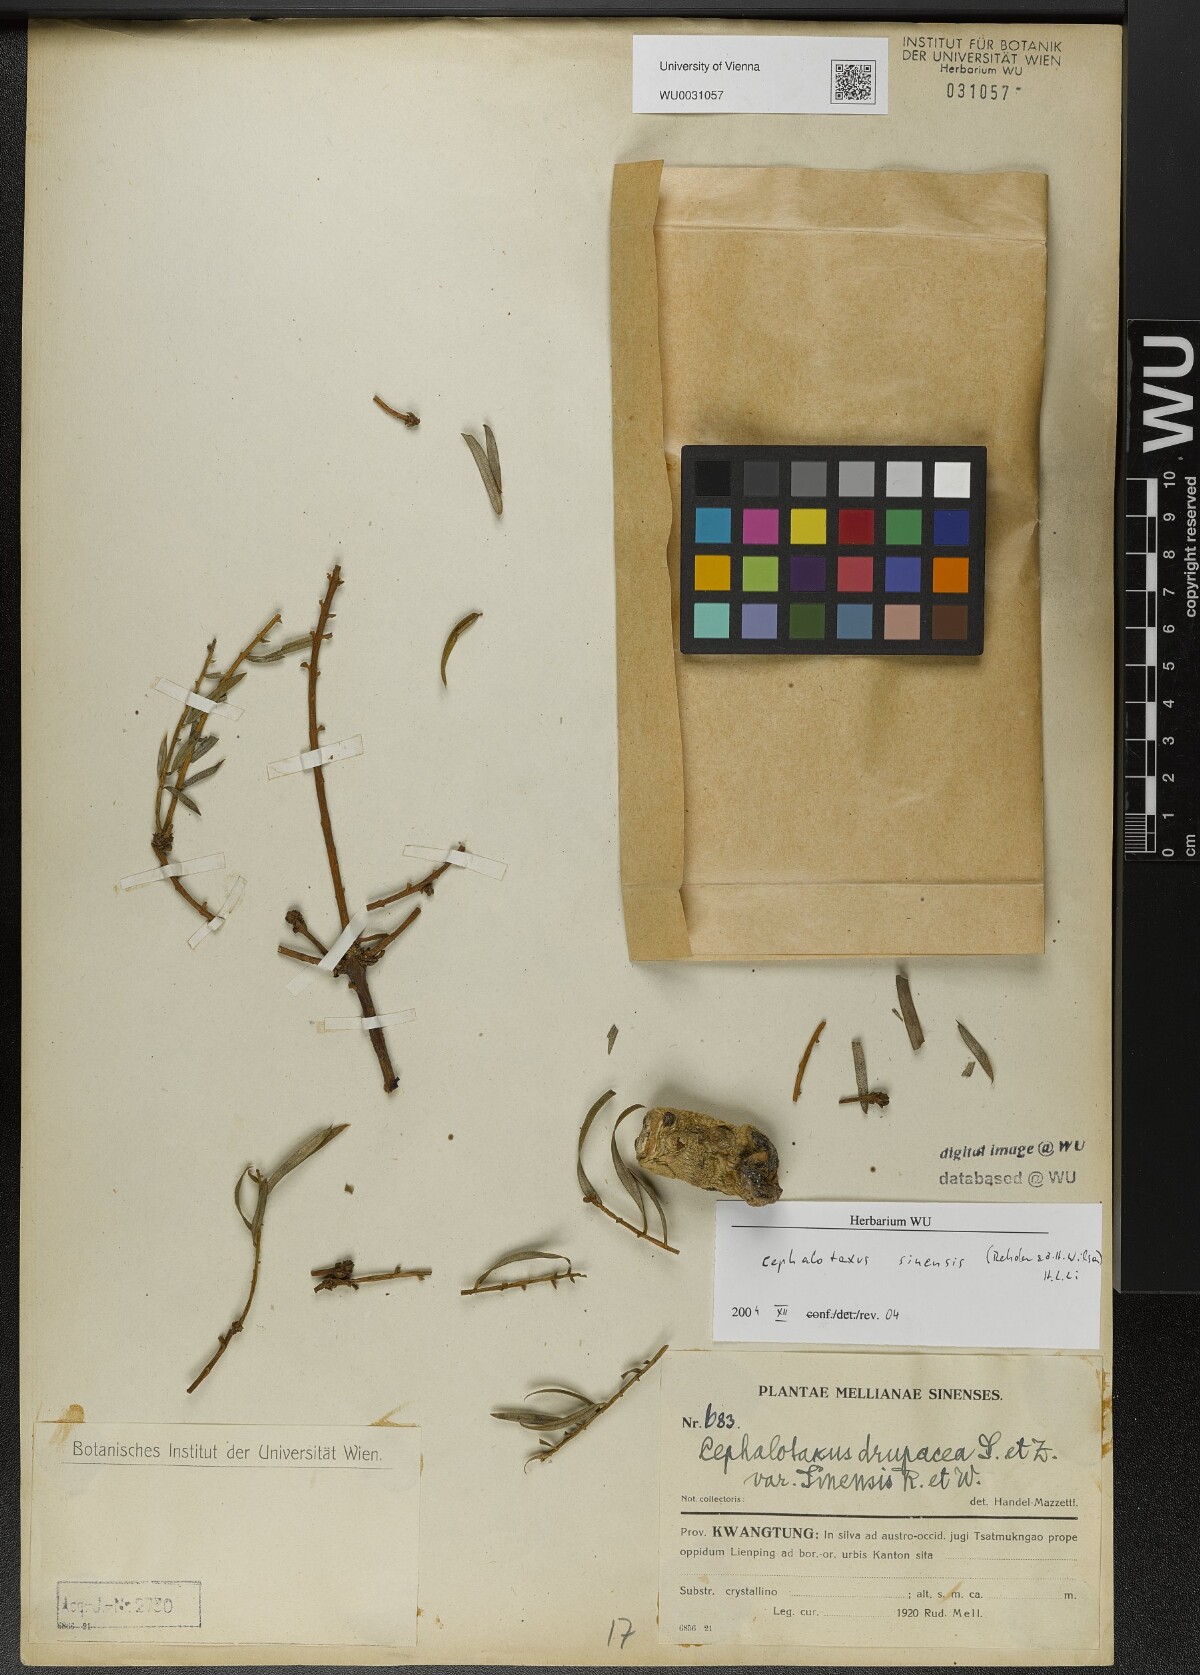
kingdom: Plantae
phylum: Tracheophyta
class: Pinopsida
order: Pinales
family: Cephalotaxaceae
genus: Cephalotaxus
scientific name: Cephalotaxus sinensis
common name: Chinese plum yew
